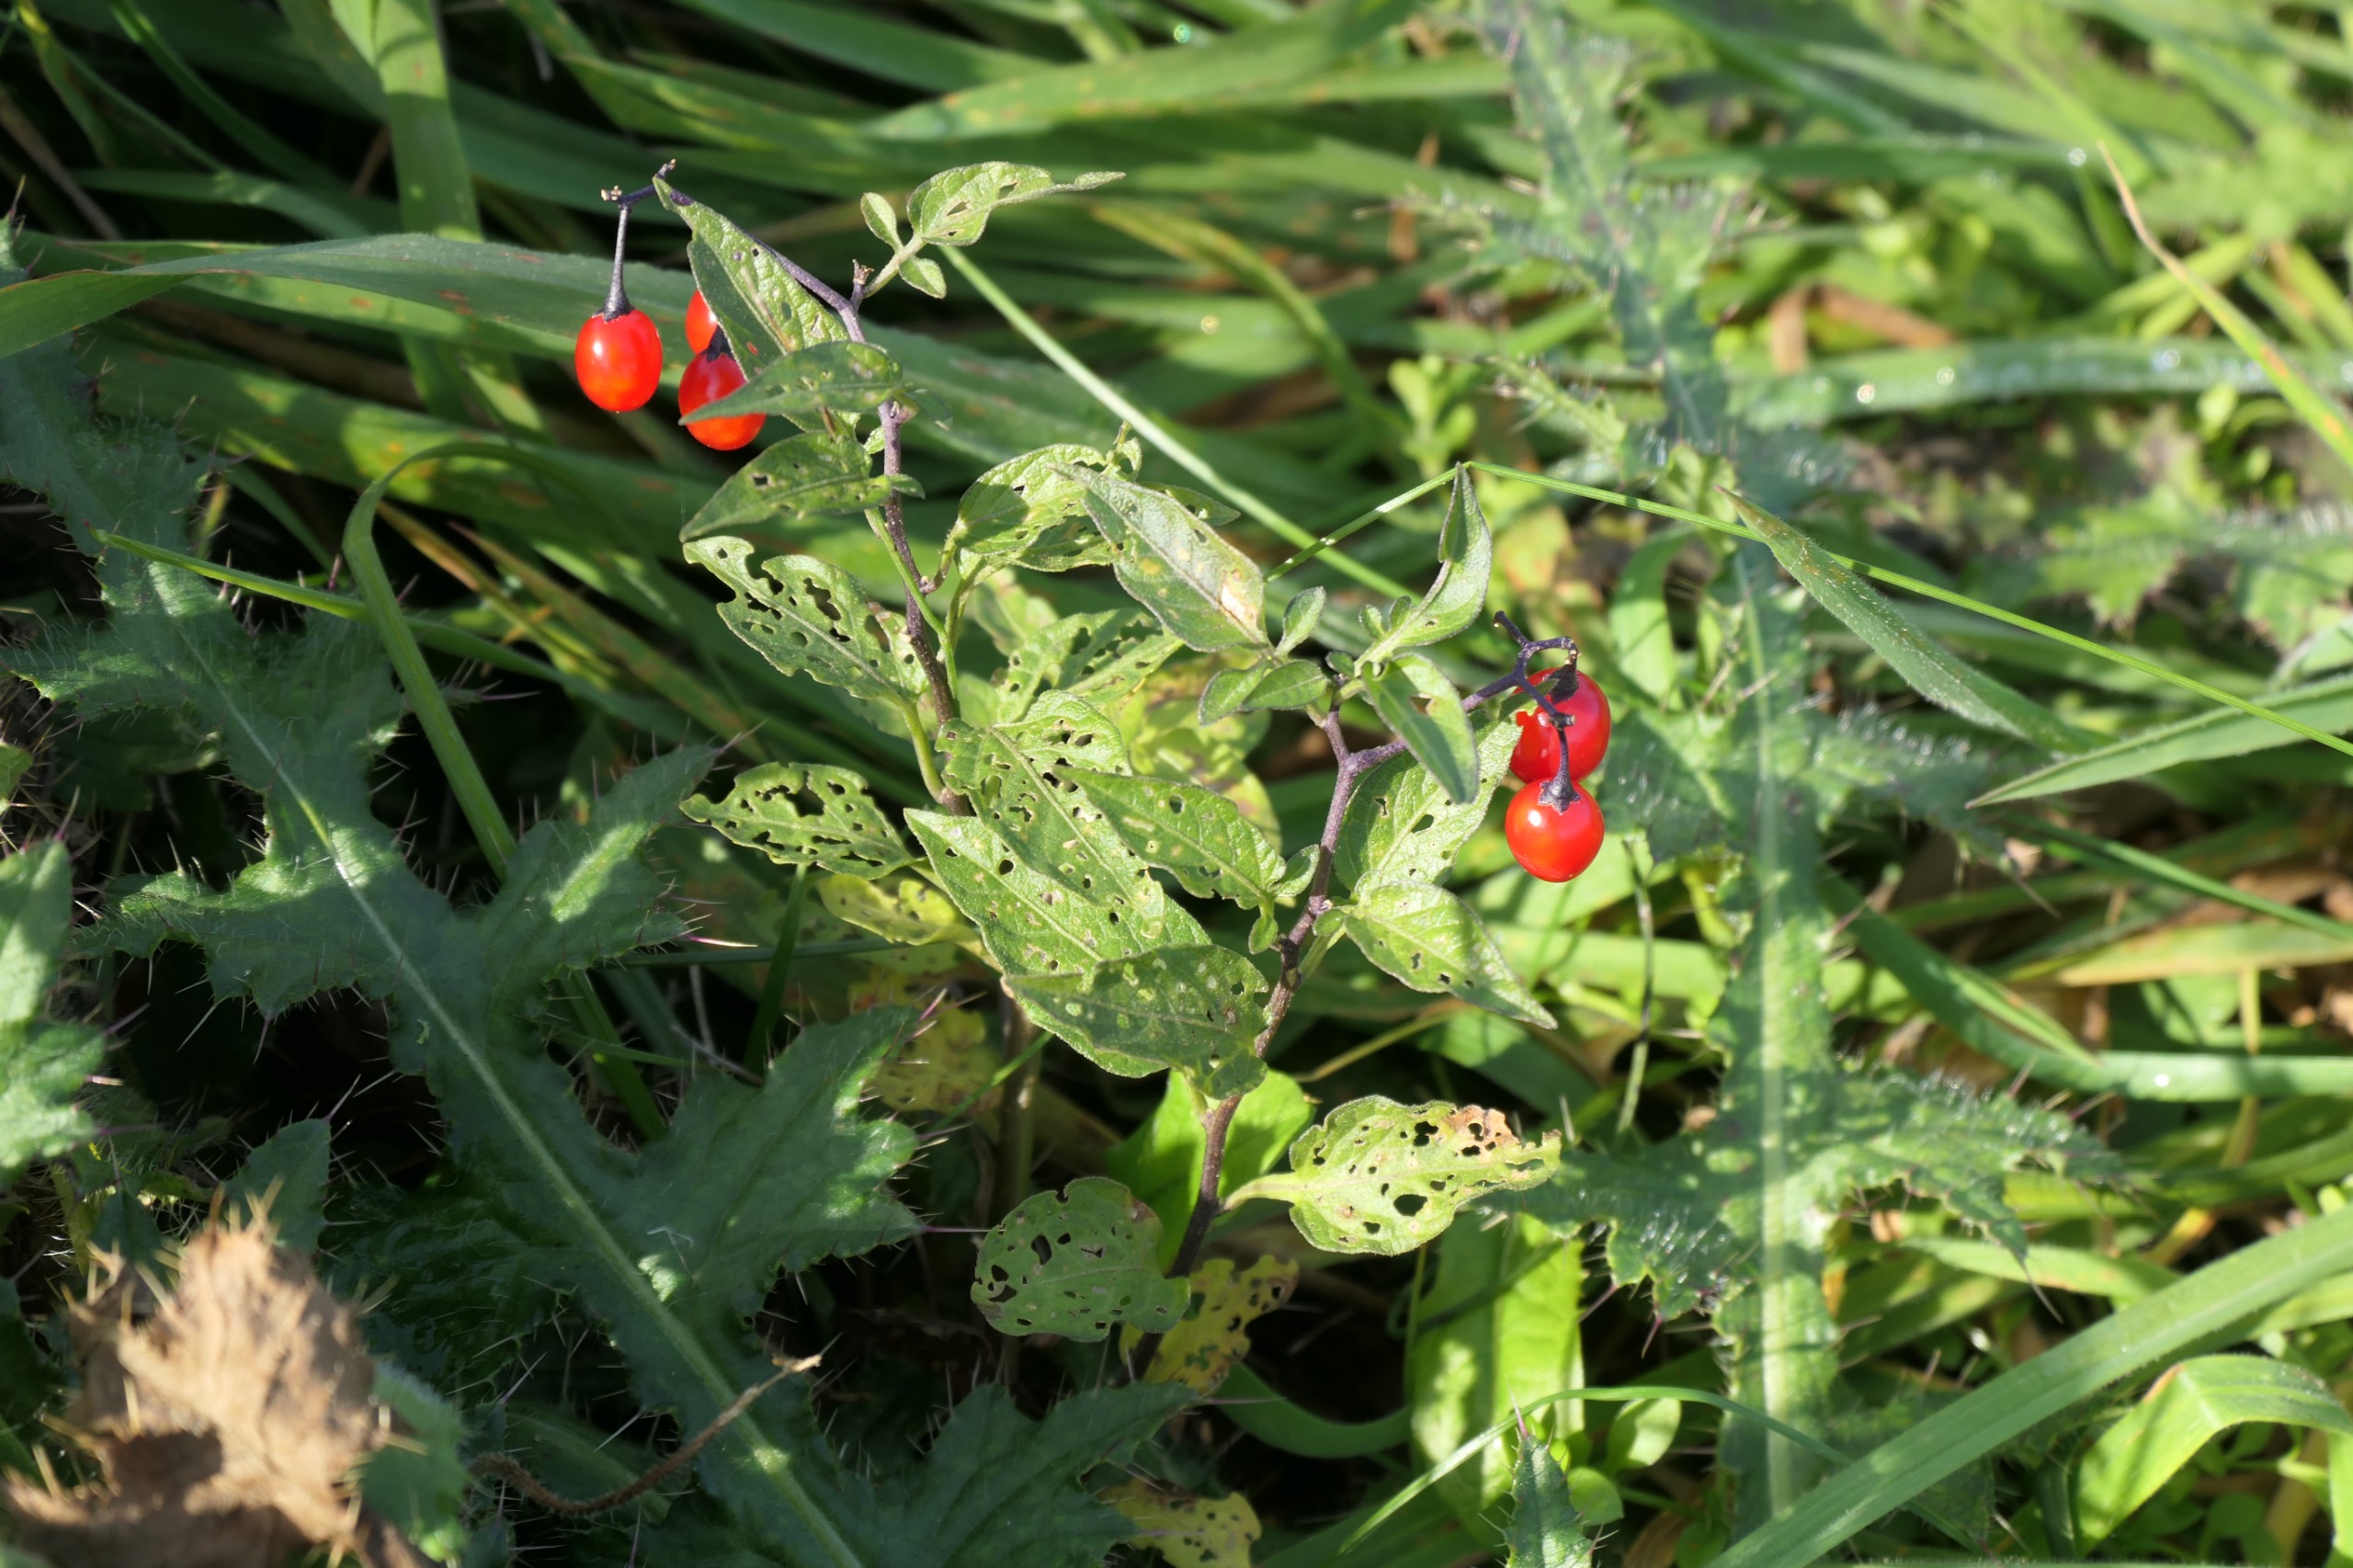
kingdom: Plantae
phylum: Tracheophyta
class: Magnoliopsida
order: Solanales
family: Solanaceae
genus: Solanum
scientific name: Solanum dulcamara
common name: Bittersød natskygge
